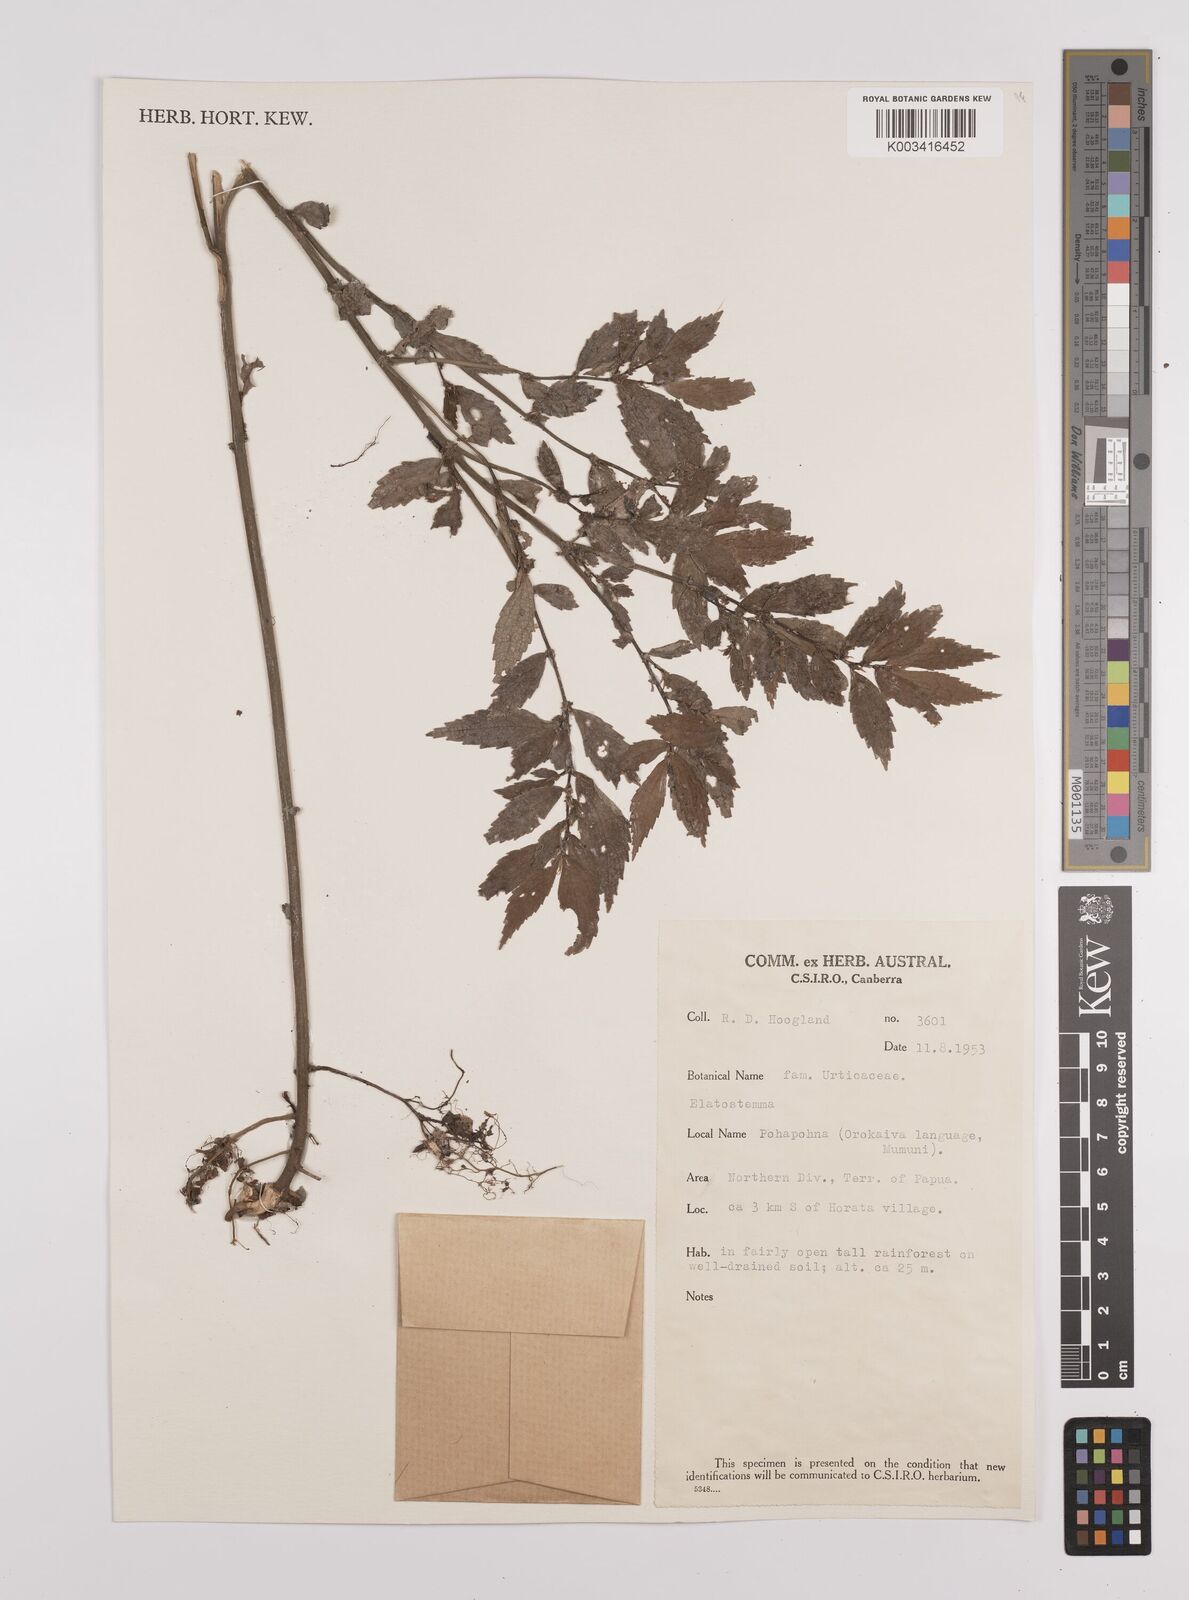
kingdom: Plantae
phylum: Tracheophyta
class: Magnoliopsida
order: Rosales
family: Urticaceae
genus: Elatostema
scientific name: Elatostema
